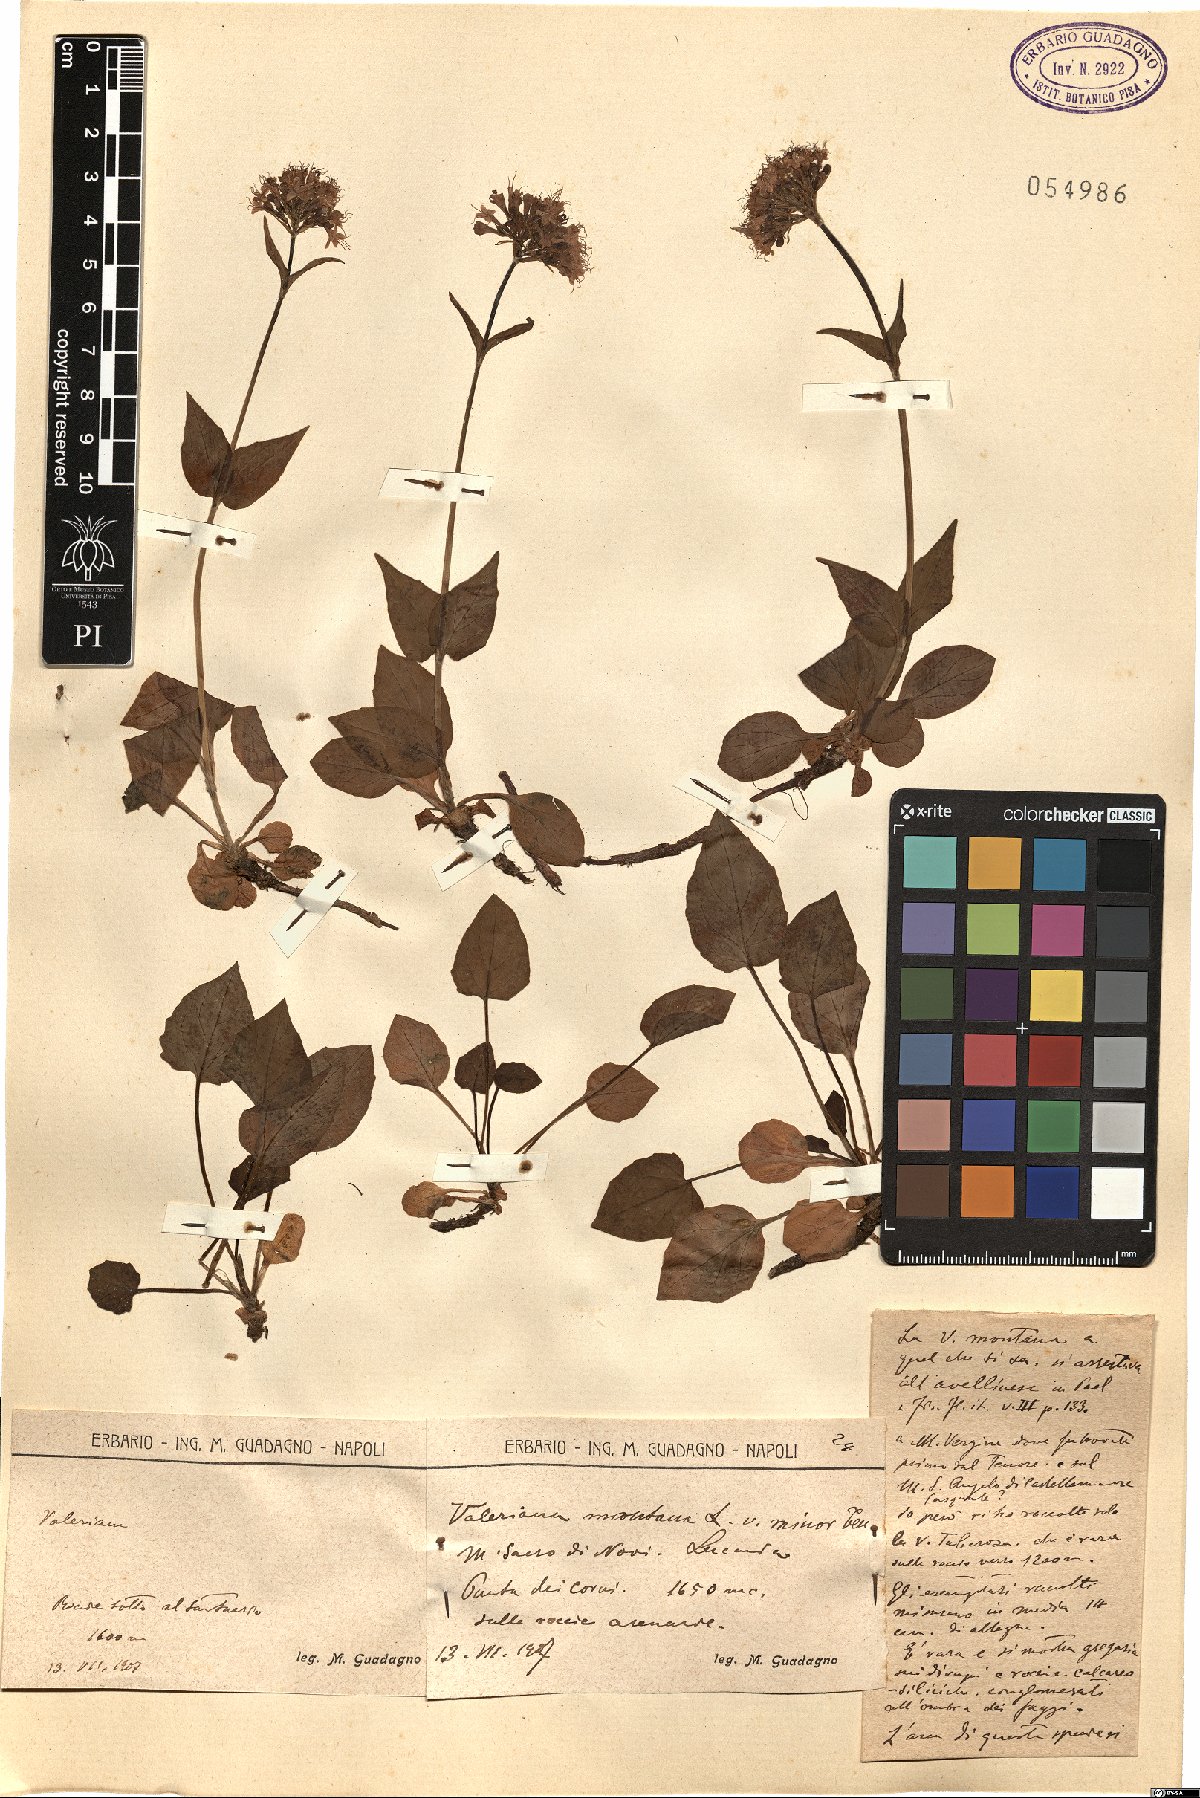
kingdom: Plantae
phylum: Tracheophyta
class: Magnoliopsida
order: Dipsacales
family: Caprifoliaceae
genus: Valeriana
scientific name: Valeriana
